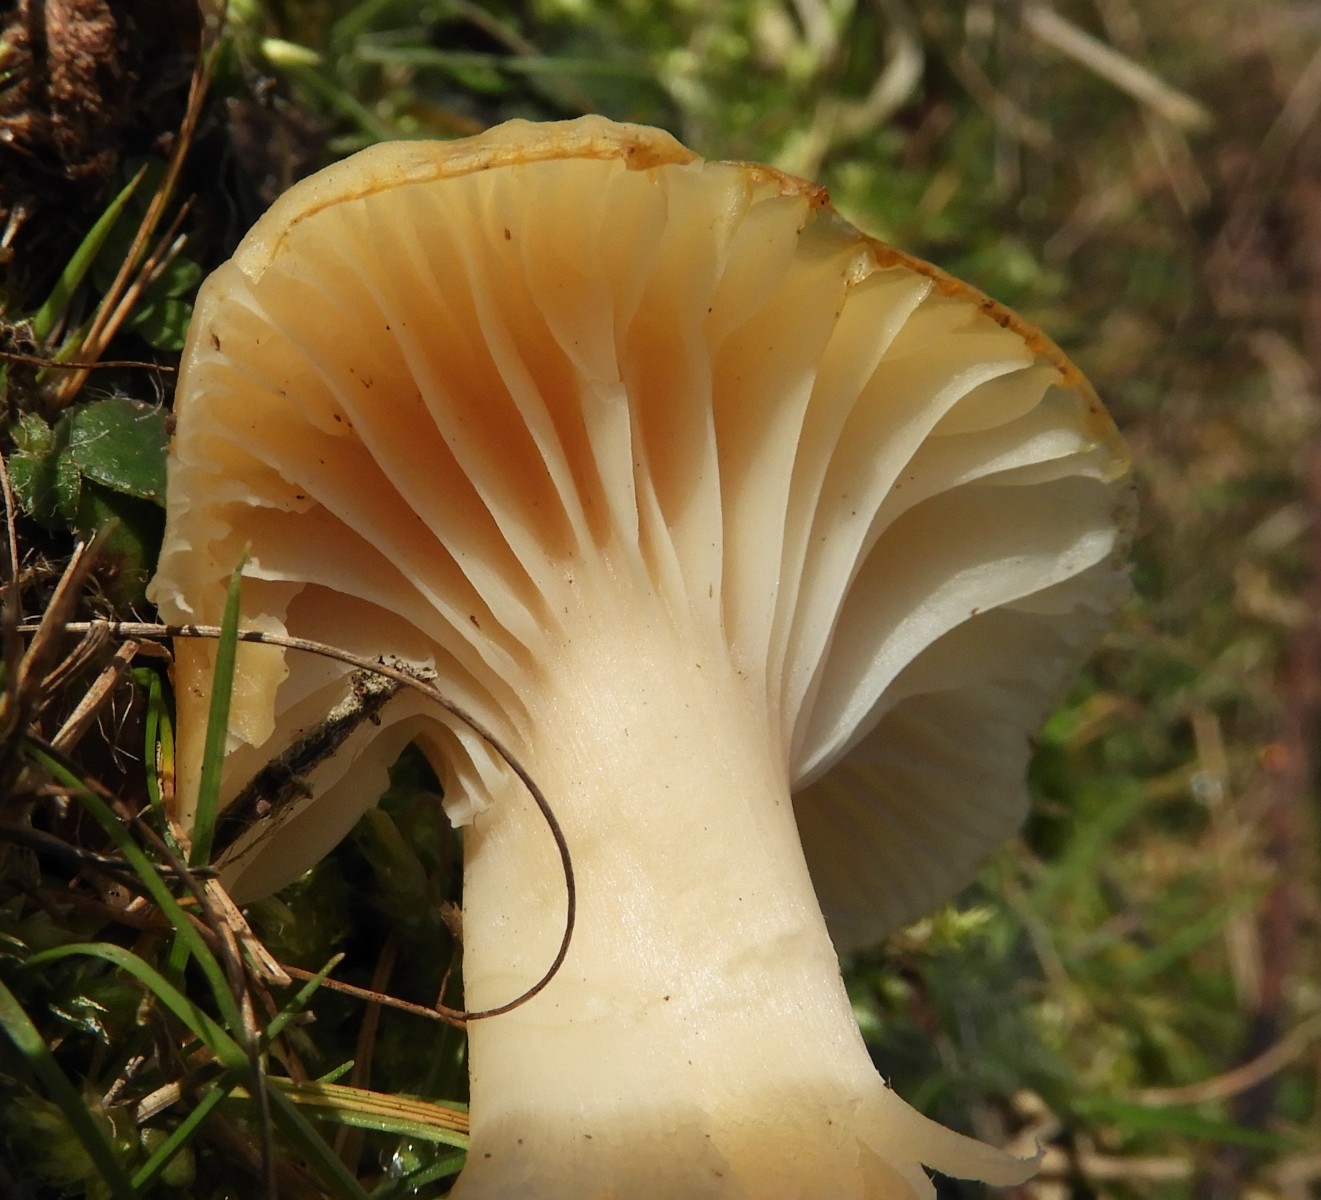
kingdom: Fungi
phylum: Basidiomycota
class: Agaricomycetes
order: Agaricales
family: Hygrophoraceae
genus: Cuphophyllus
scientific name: Cuphophyllus pratensis
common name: eng-vokshat
